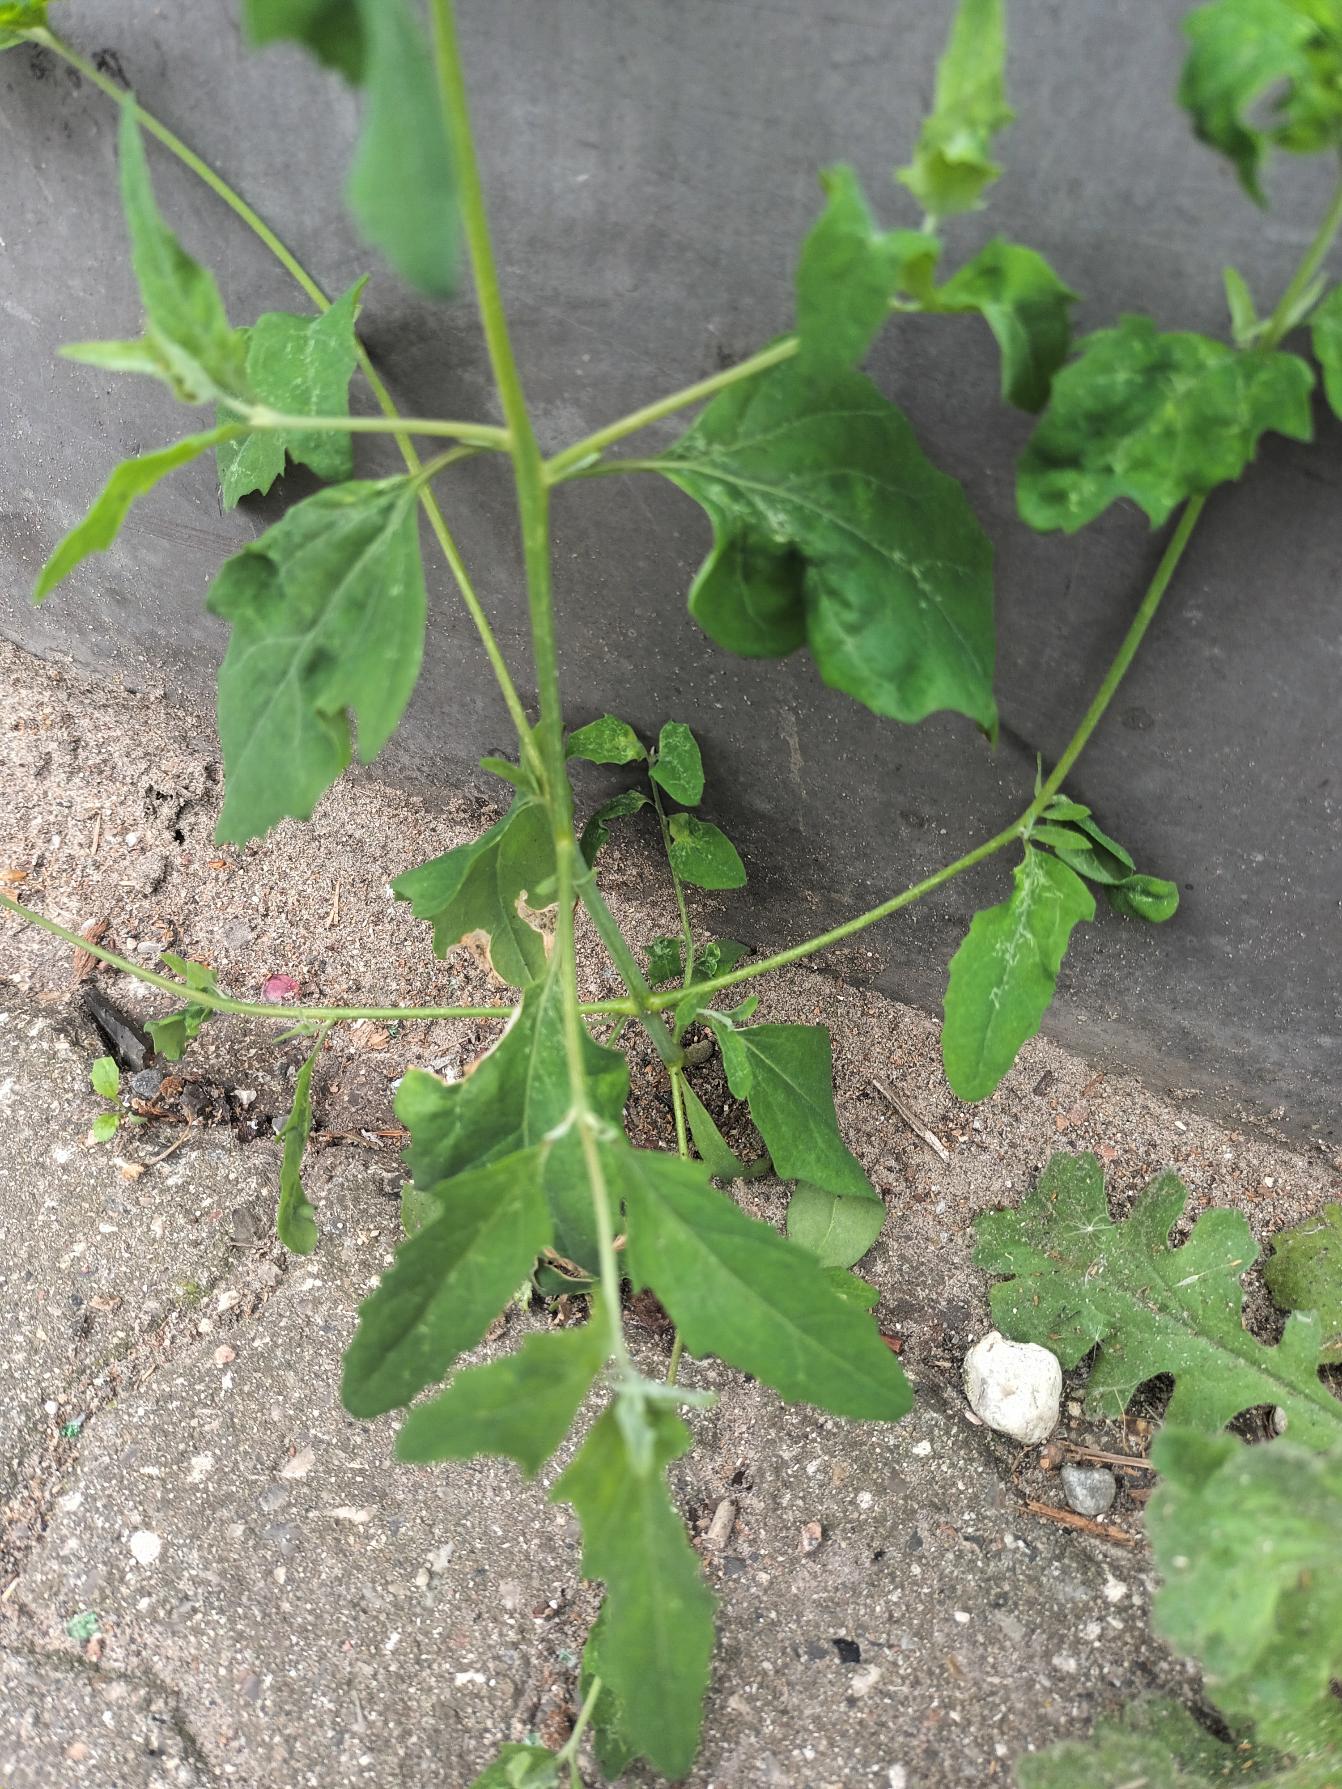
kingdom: Plantae
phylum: Tracheophyta
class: Magnoliopsida
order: Caryophyllales
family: Amaranthaceae
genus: Atriplex
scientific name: Atriplex patula
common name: Svine-mælde
